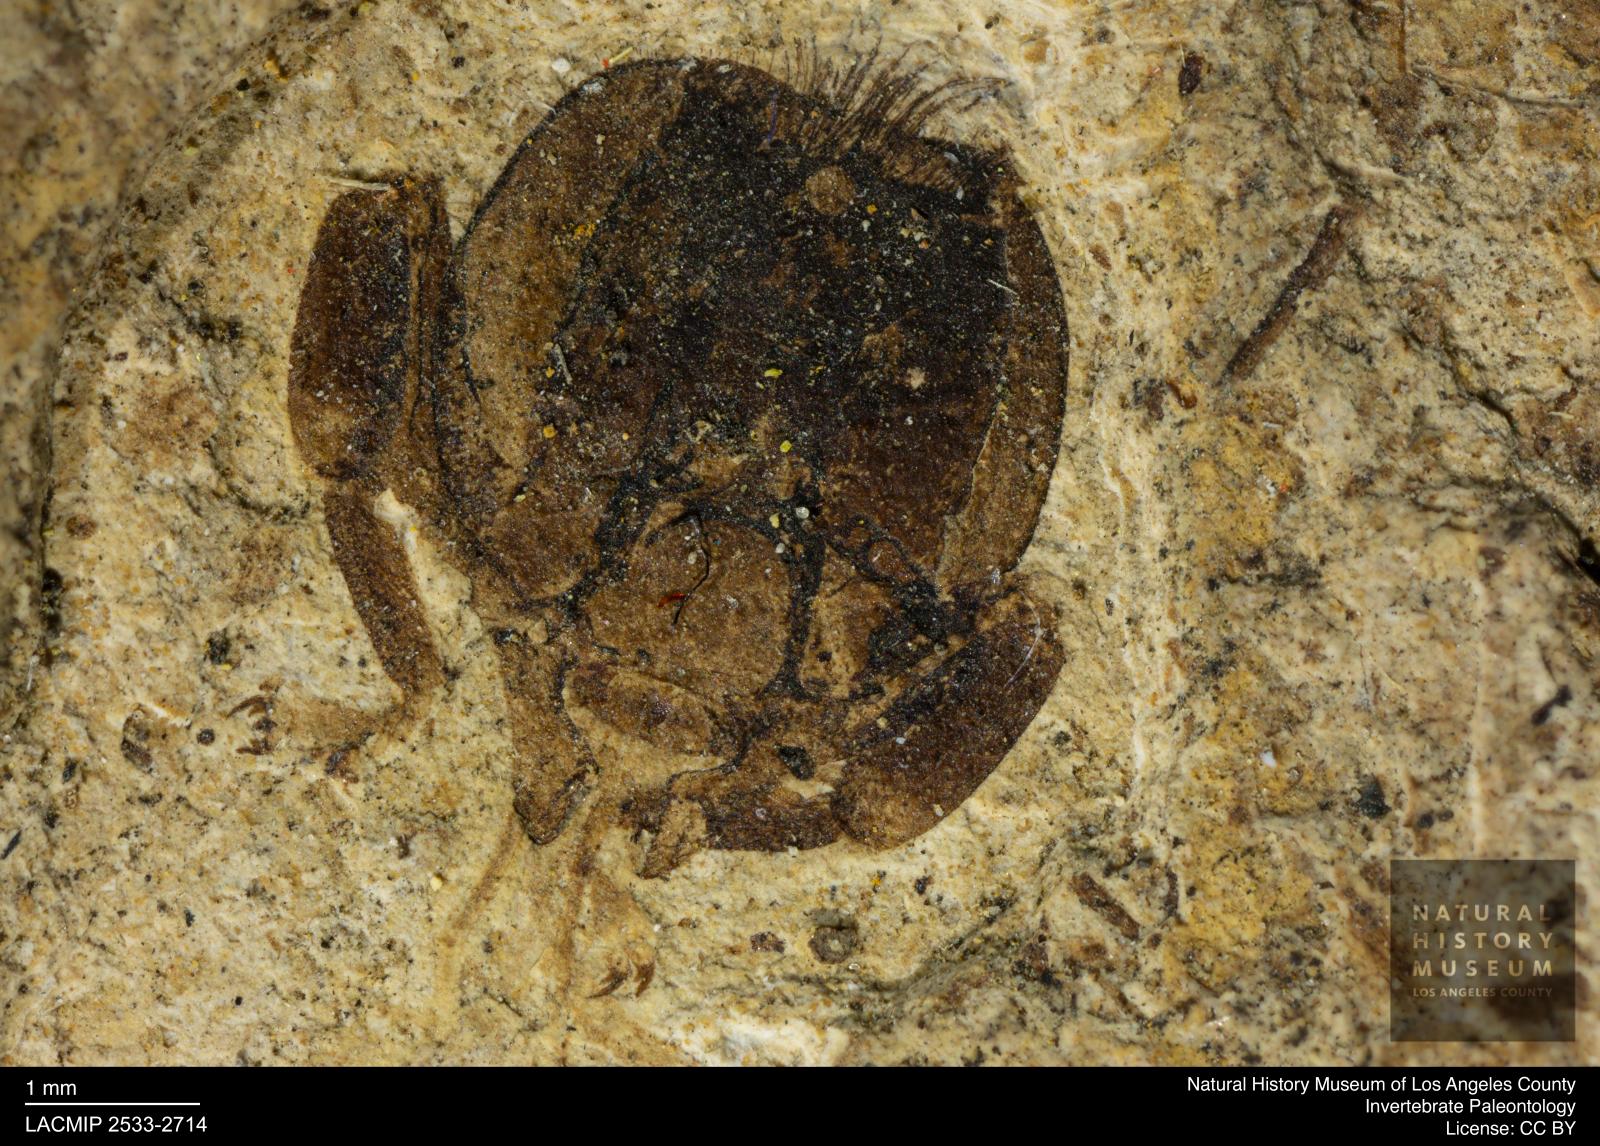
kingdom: Animalia
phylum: Arthropoda
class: Insecta
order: Hymenoptera
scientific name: Hymenoptera
